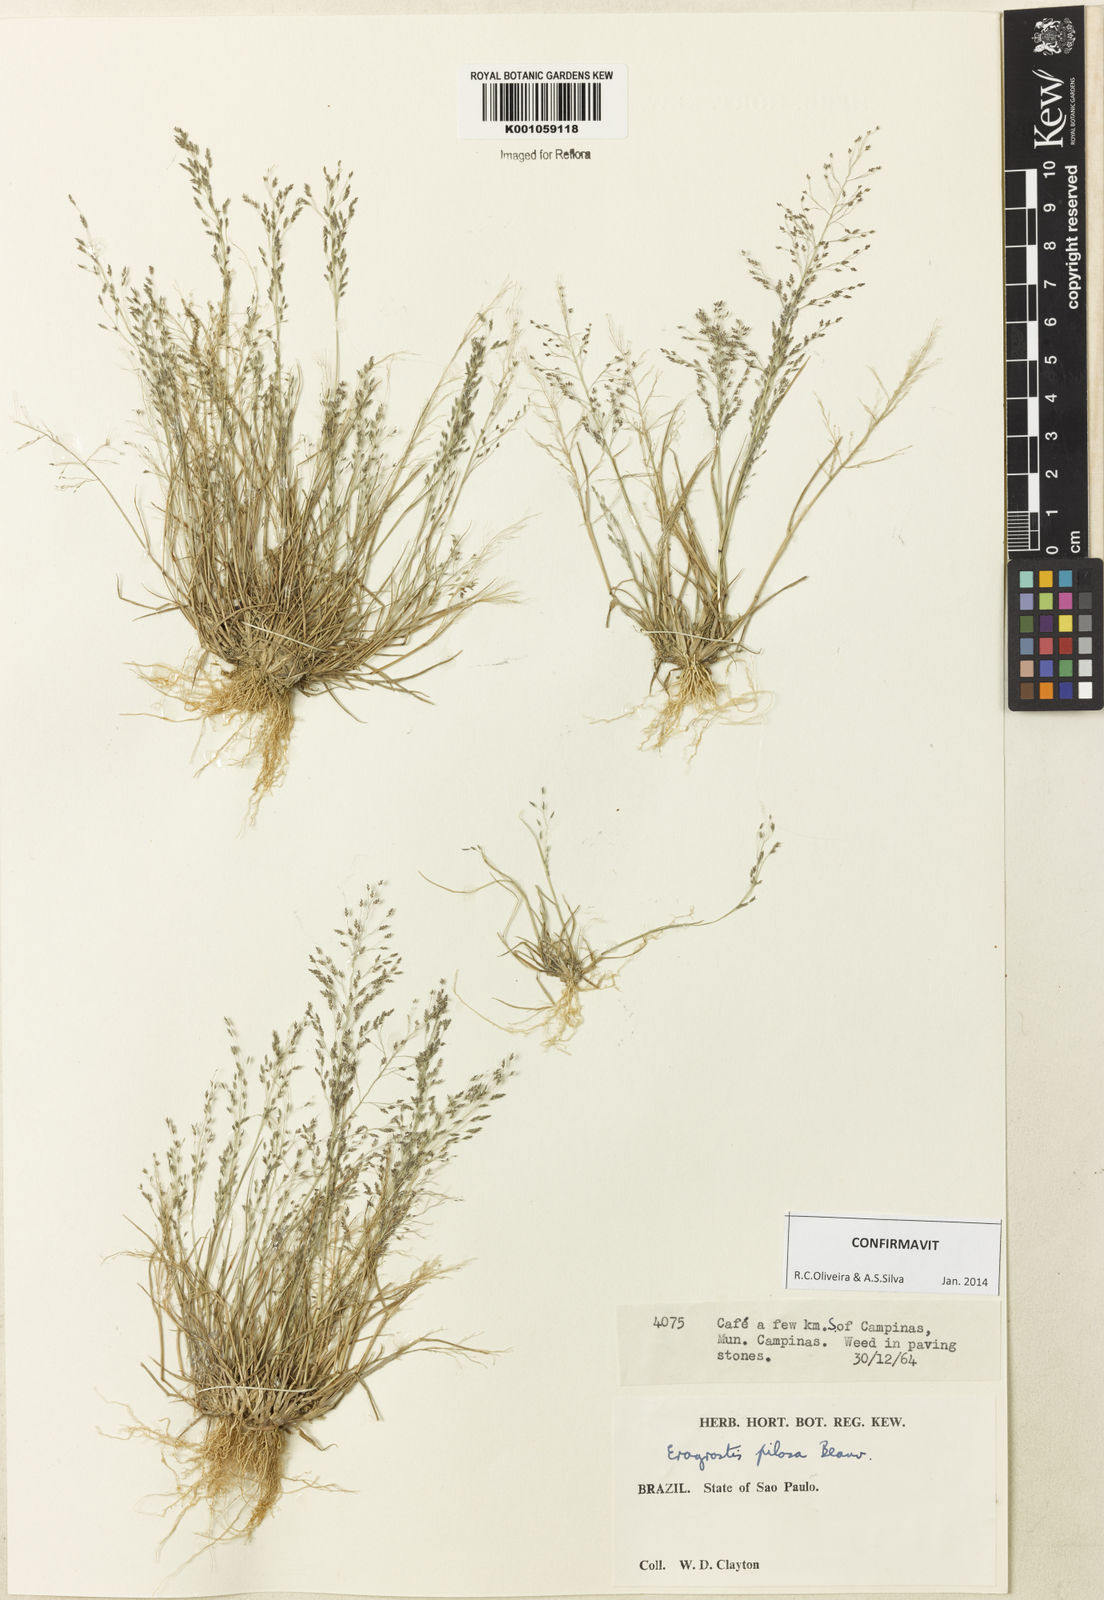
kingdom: Plantae
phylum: Tracheophyta
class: Liliopsida
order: Poales
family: Poaceae
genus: Eragrostis
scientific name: Eragrostis pilosa
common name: Indian lovegrass
